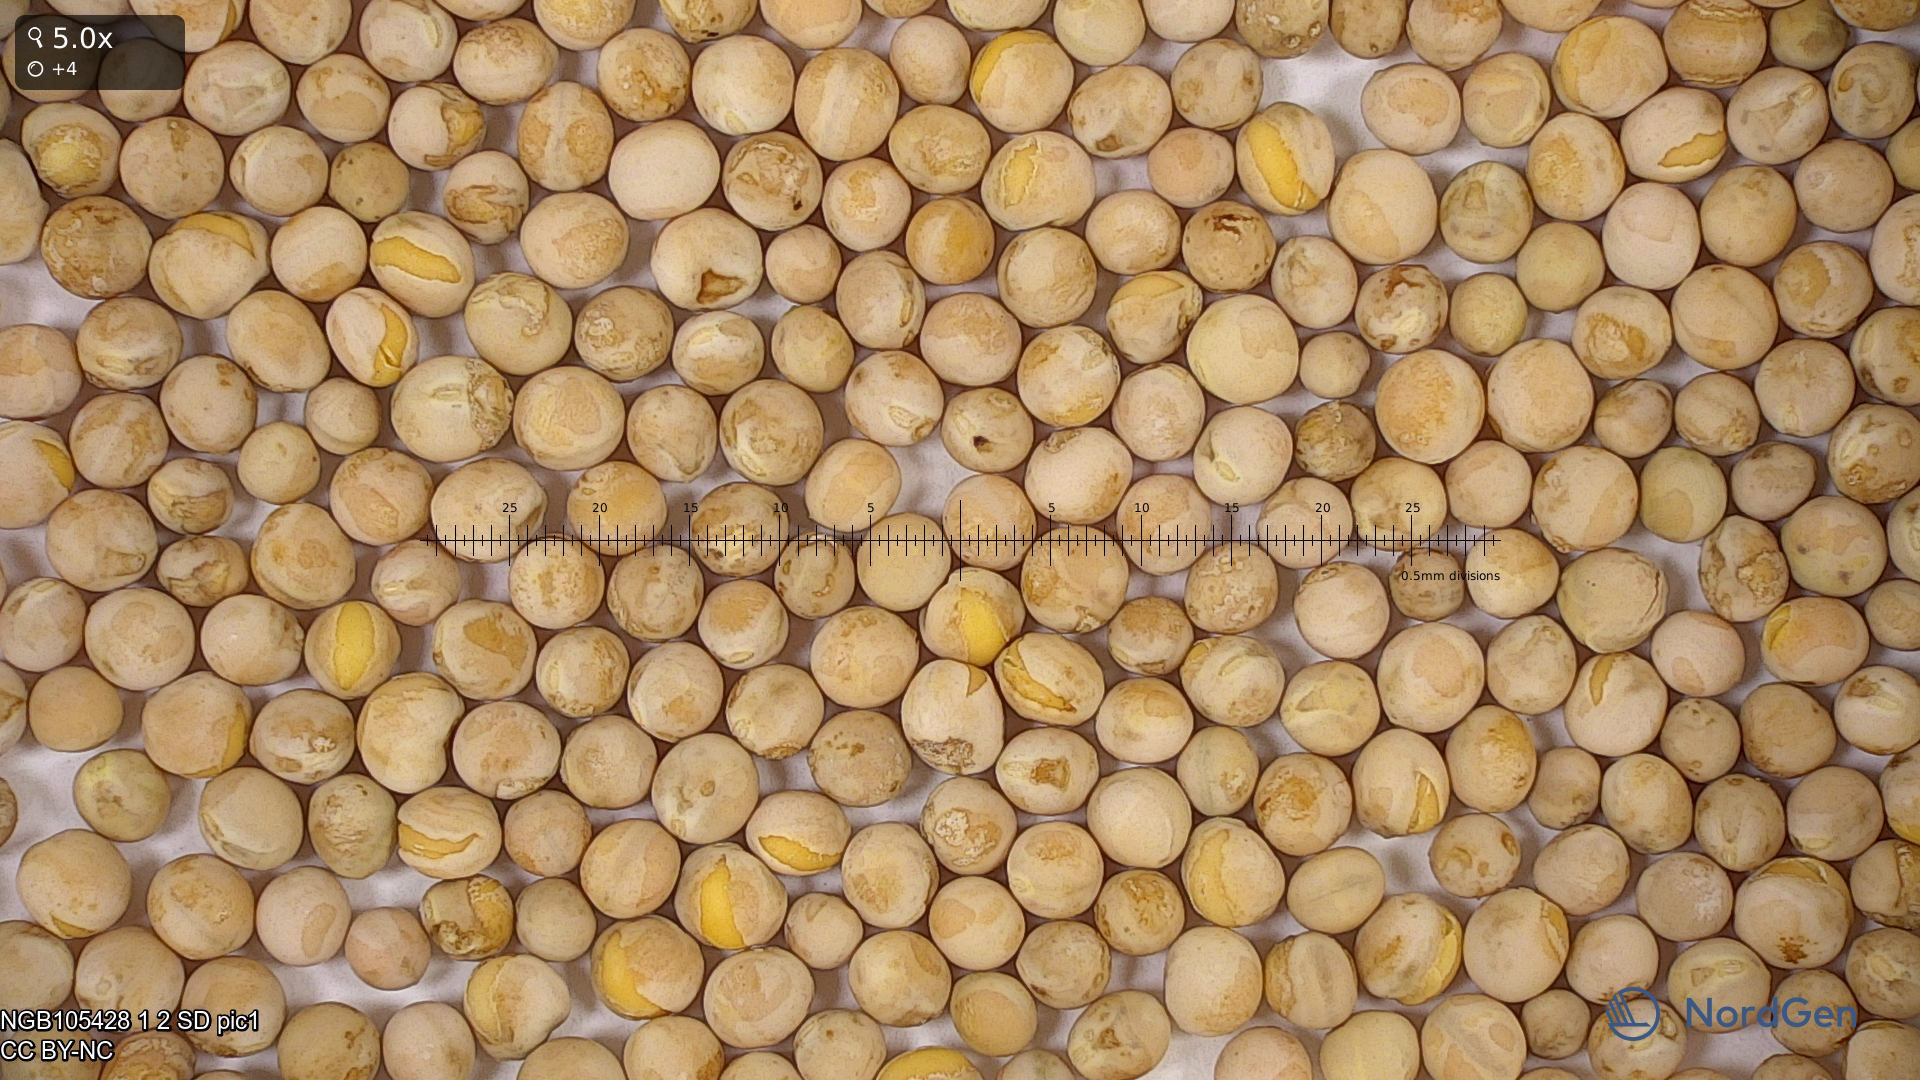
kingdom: Plantae
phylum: Tracheophyta
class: Magnoliopsida
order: Fabales
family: Fabaceae
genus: Lathyrus
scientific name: Lathyrus oleraceus
